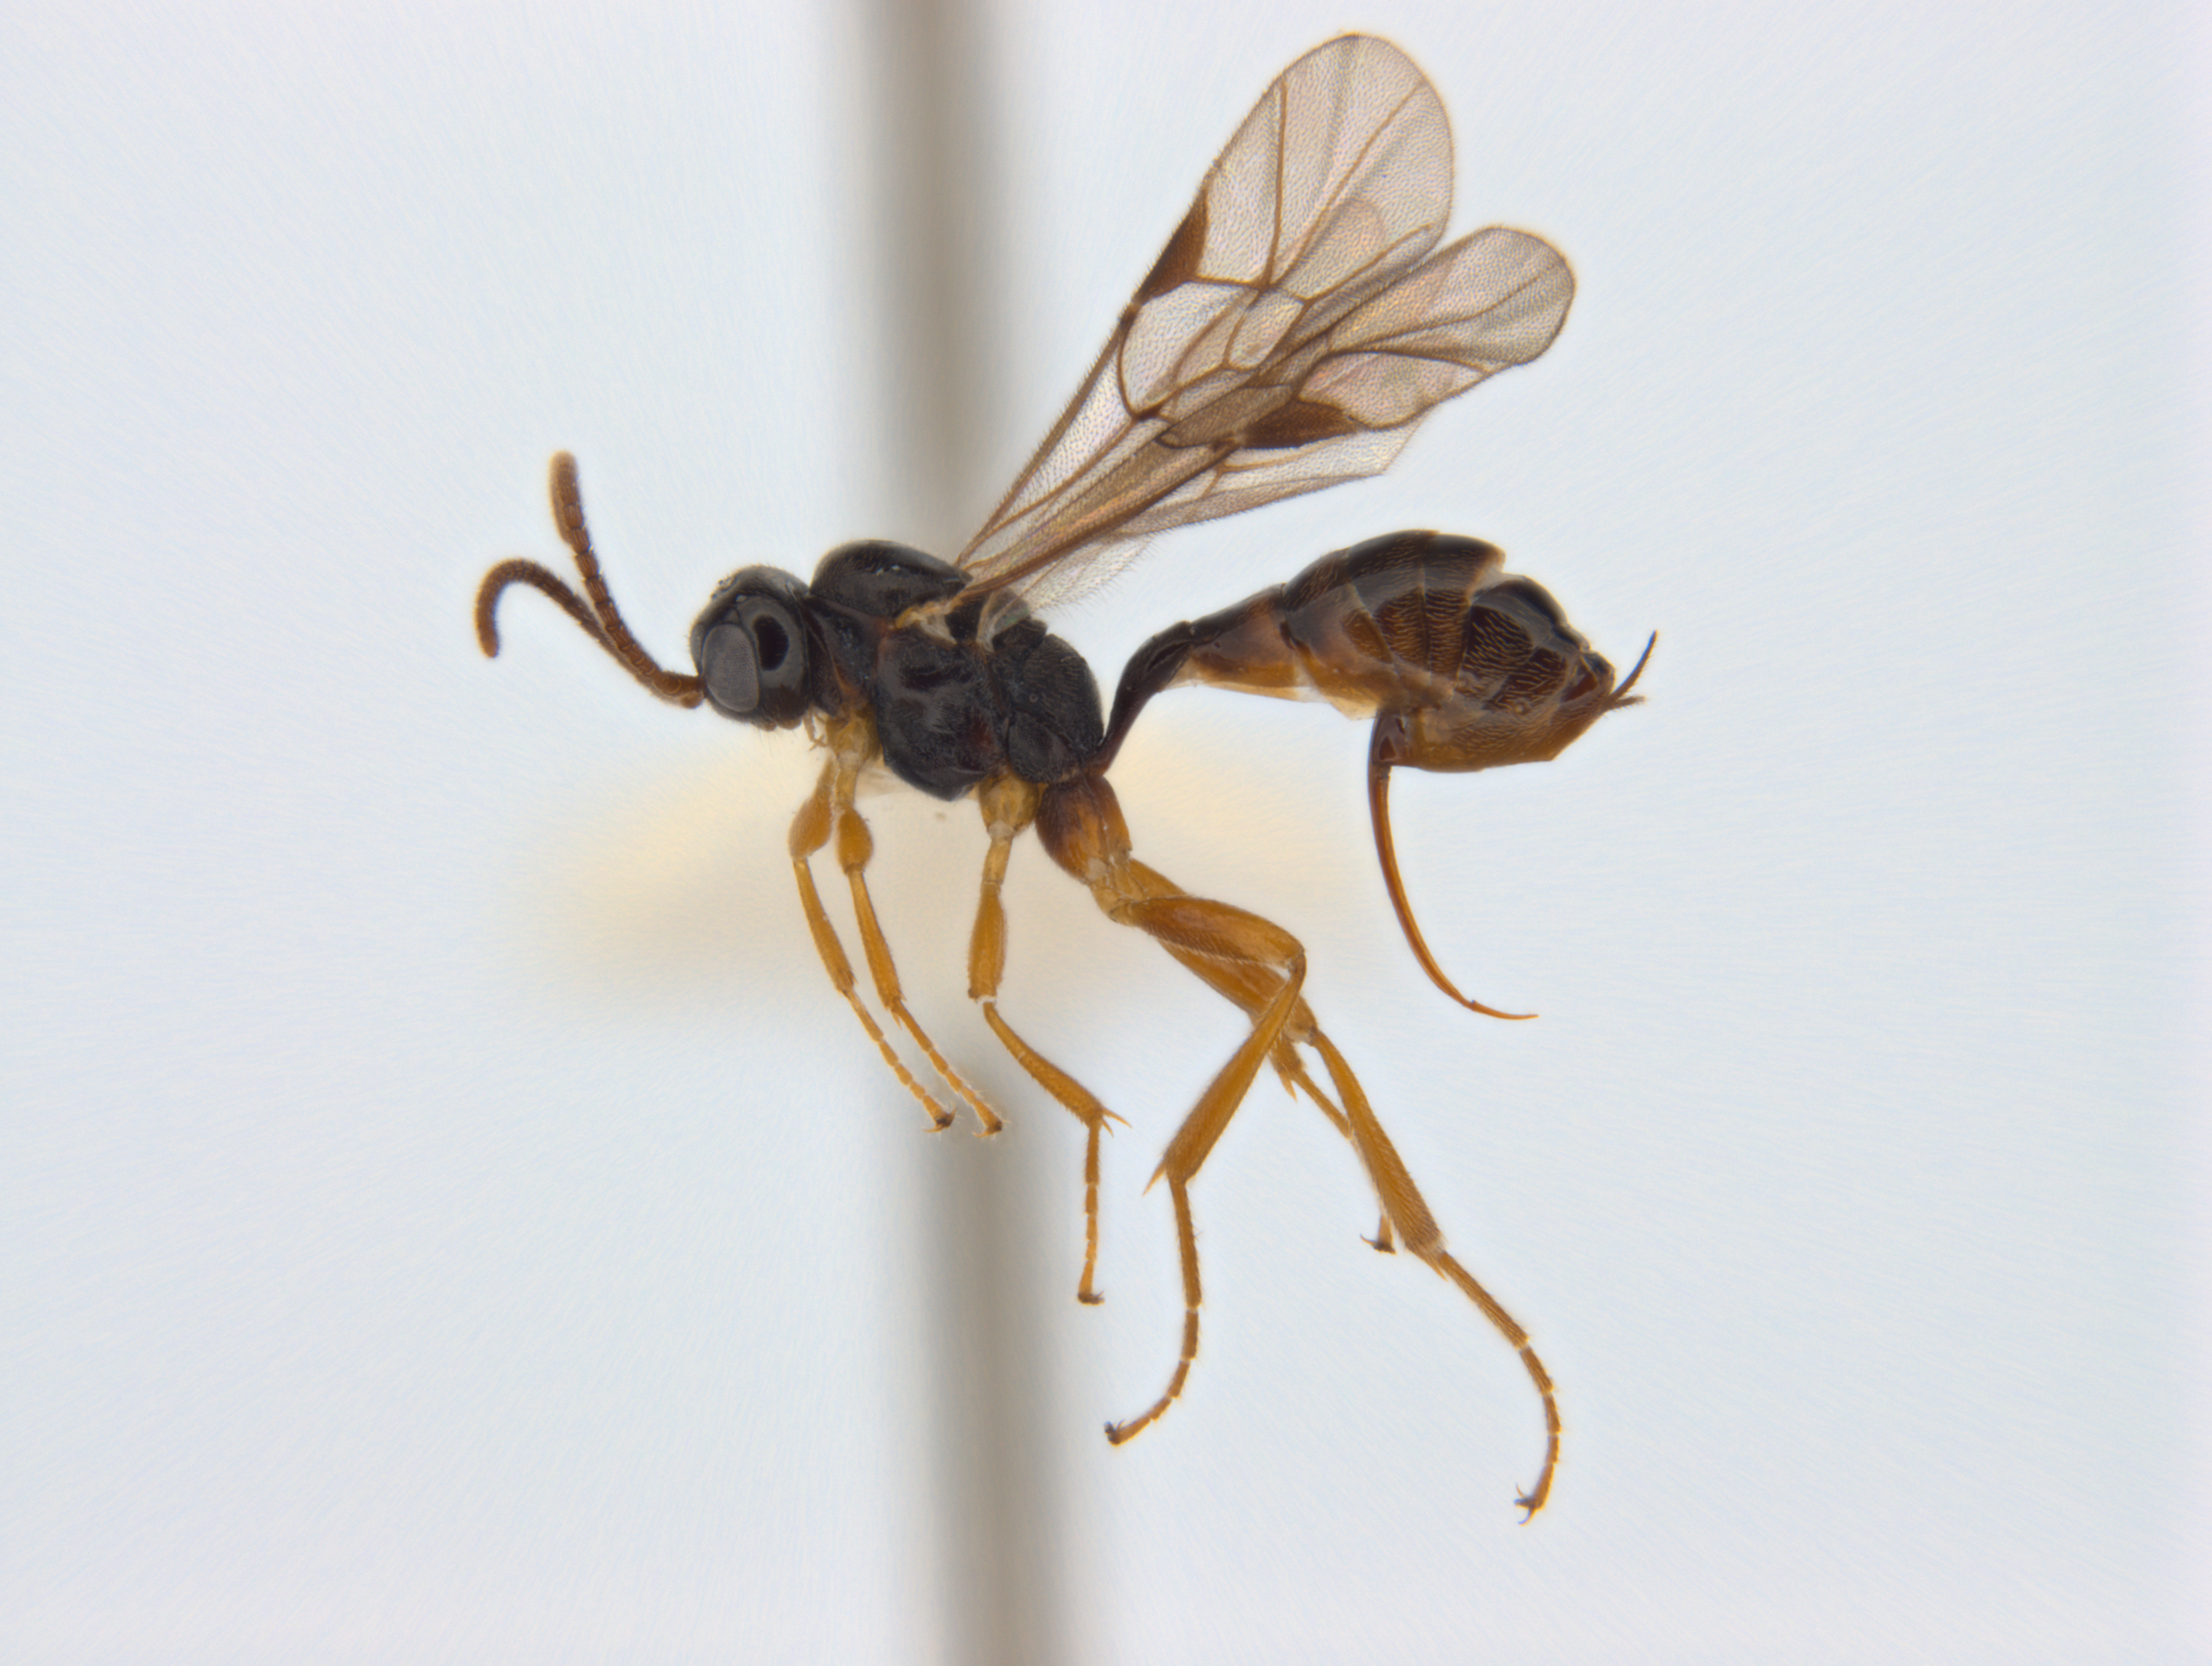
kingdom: Animalia
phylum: Arthropoda
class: Insecta
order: Hymenoptera
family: Ichneumonidae
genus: Barycnellus
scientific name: Barycnellus cuvierensis
